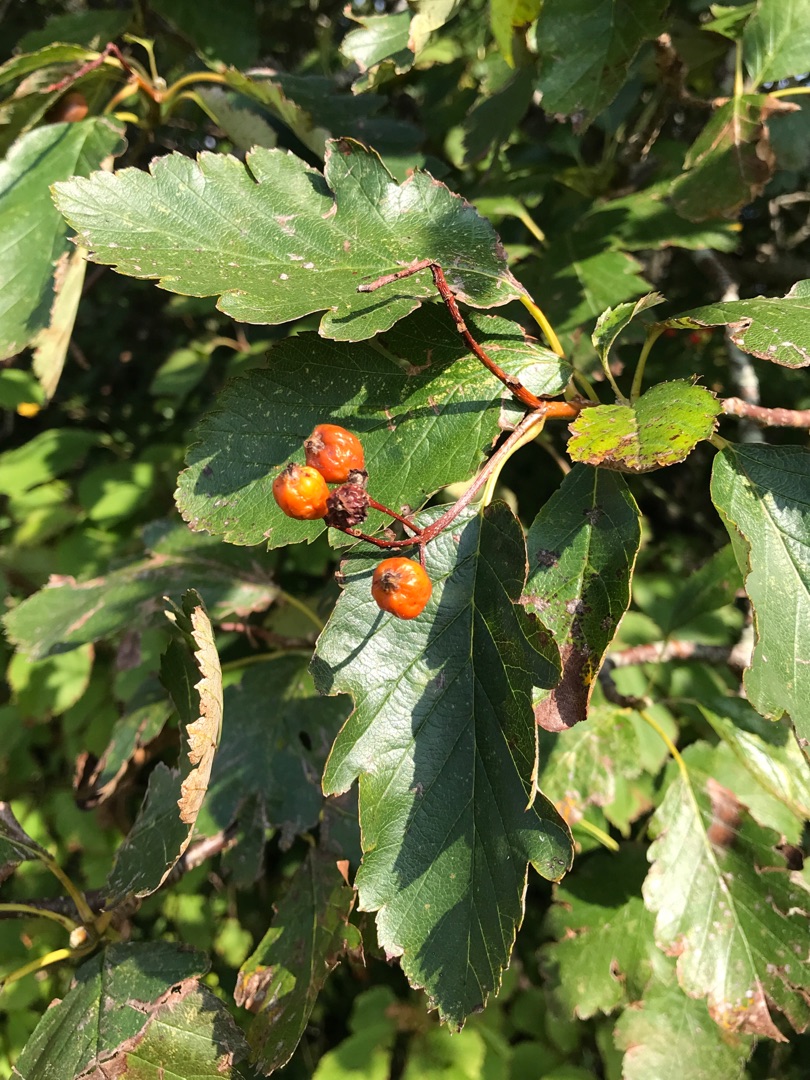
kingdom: Plantae
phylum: Tracheophyta
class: Magnoliopsida
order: Rosales
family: Rosaceae
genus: Scandosorbus
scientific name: Scandosorbus intermedia
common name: Selje-røn
